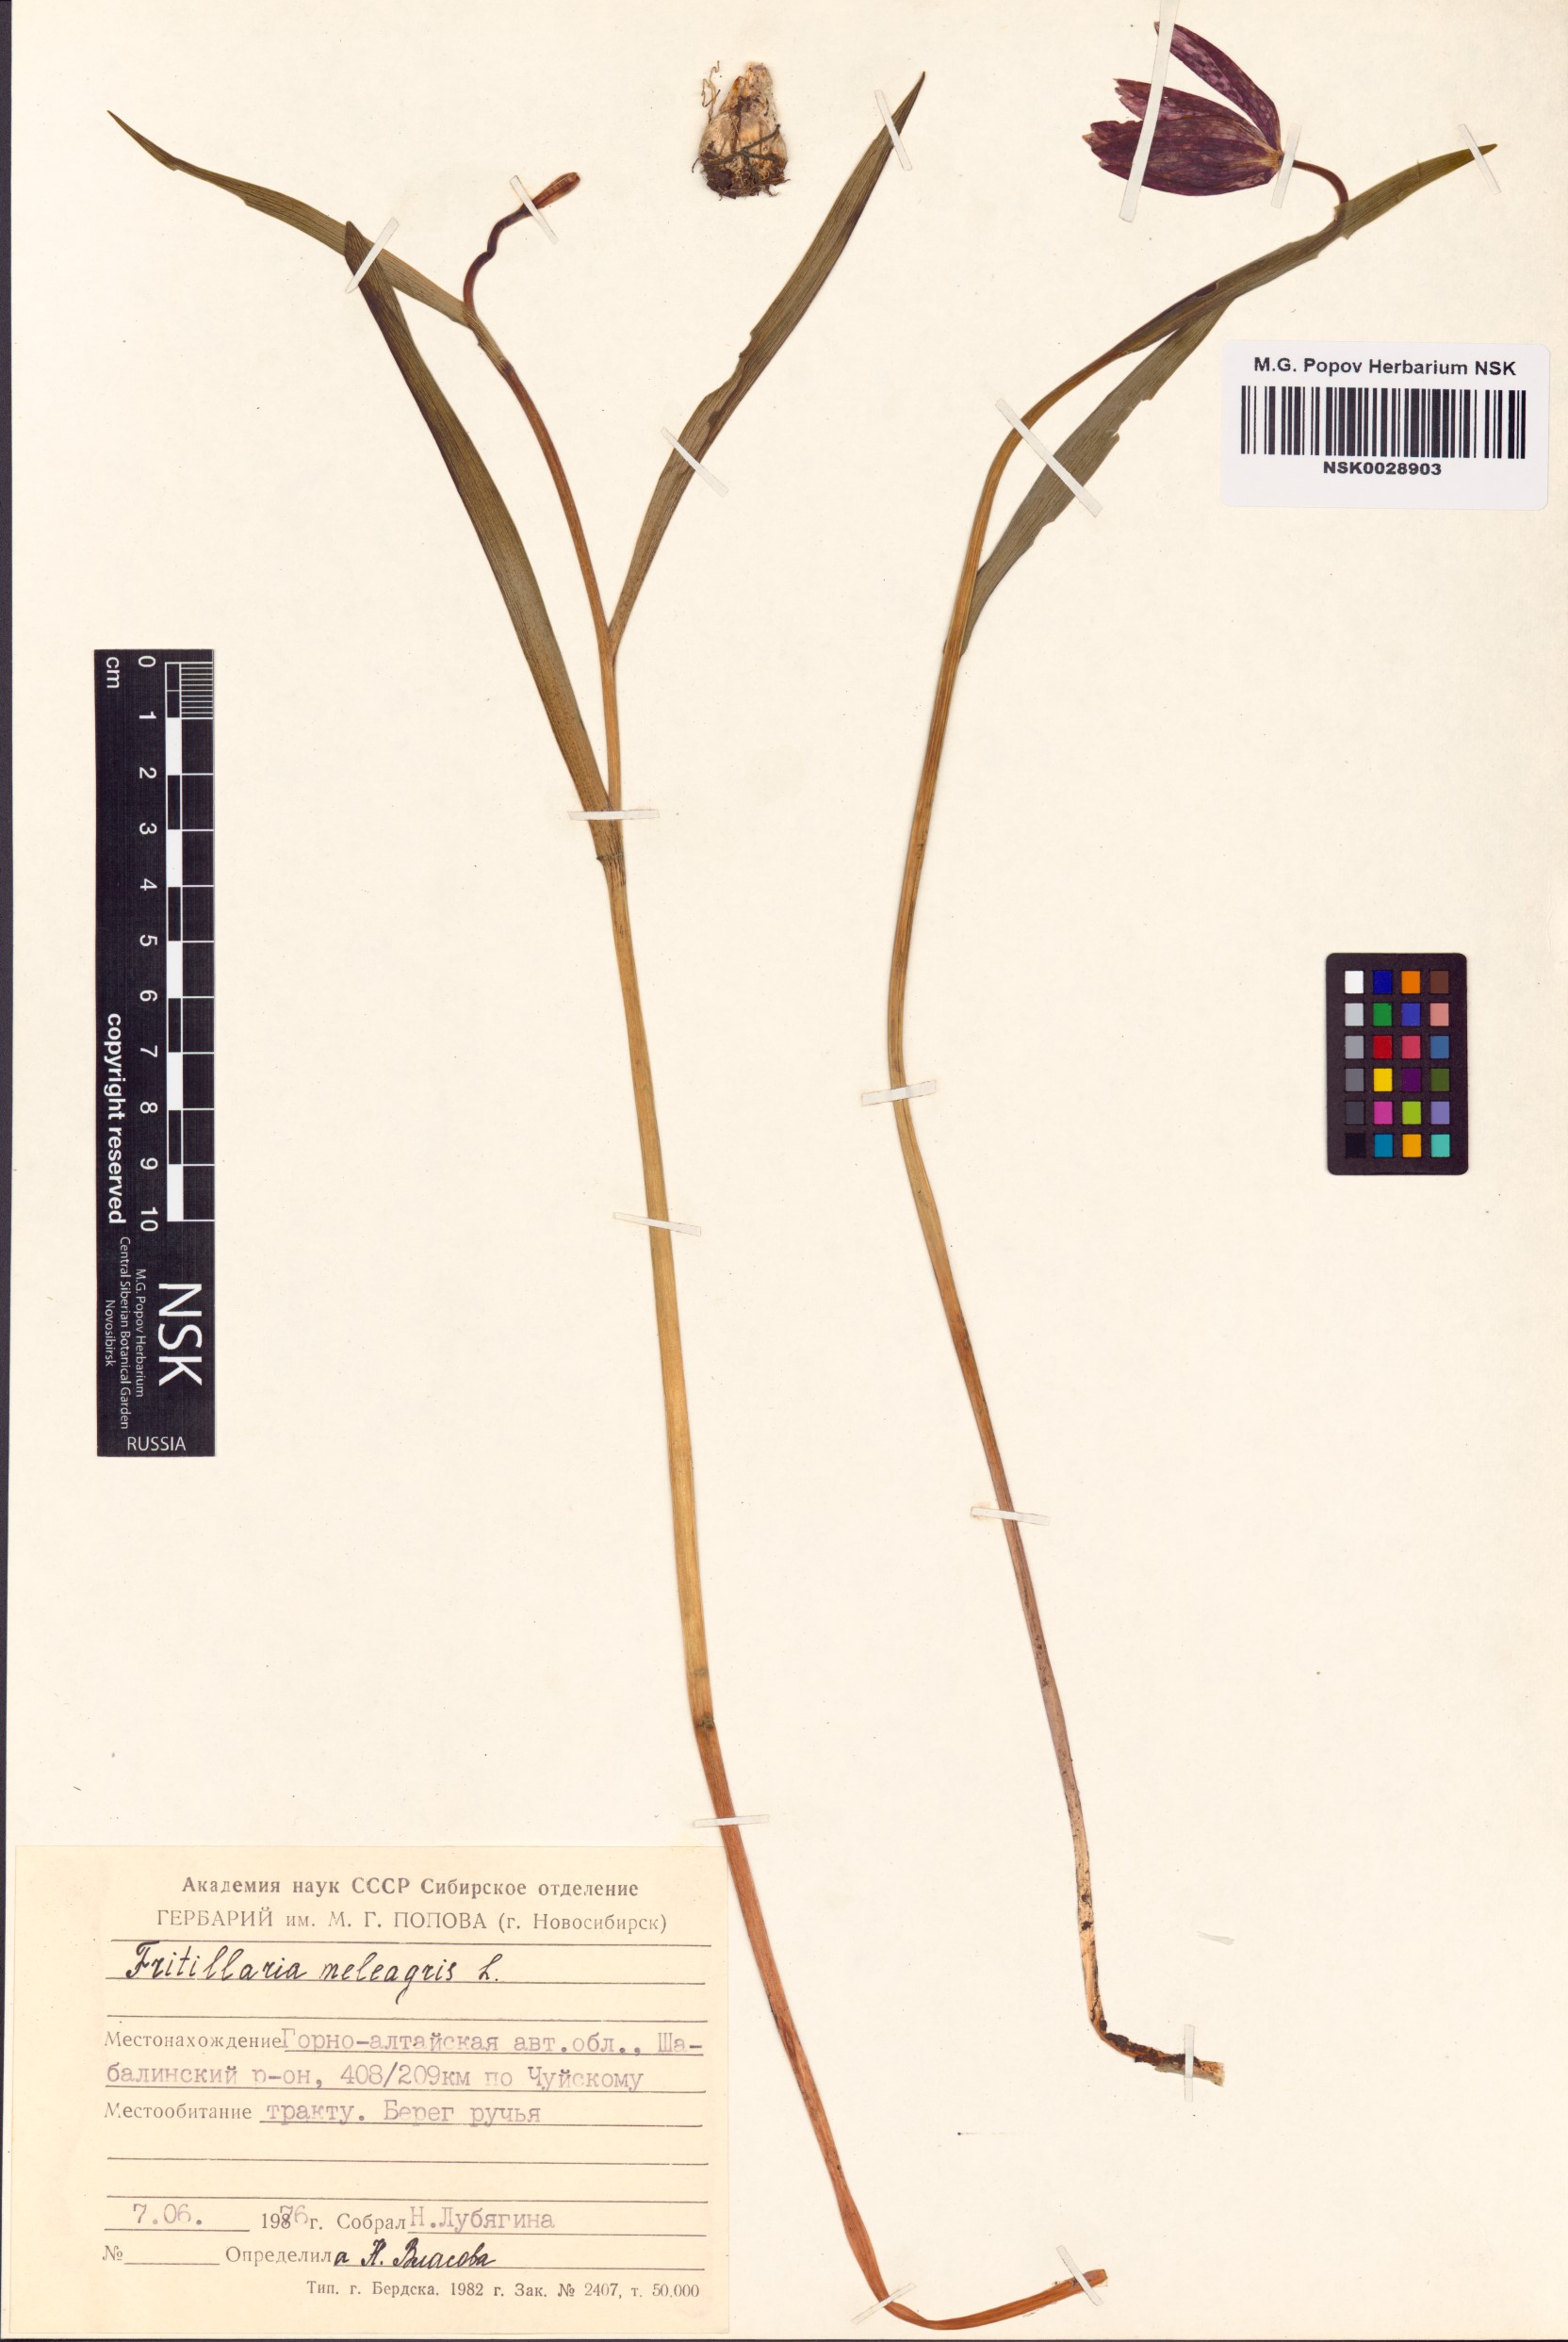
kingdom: Plantae
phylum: Tracheophyta
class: Liliopsida
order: Liliales
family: Liliaceae
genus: Fritillaria
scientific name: Fritillaria meleagris
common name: Fritillary
